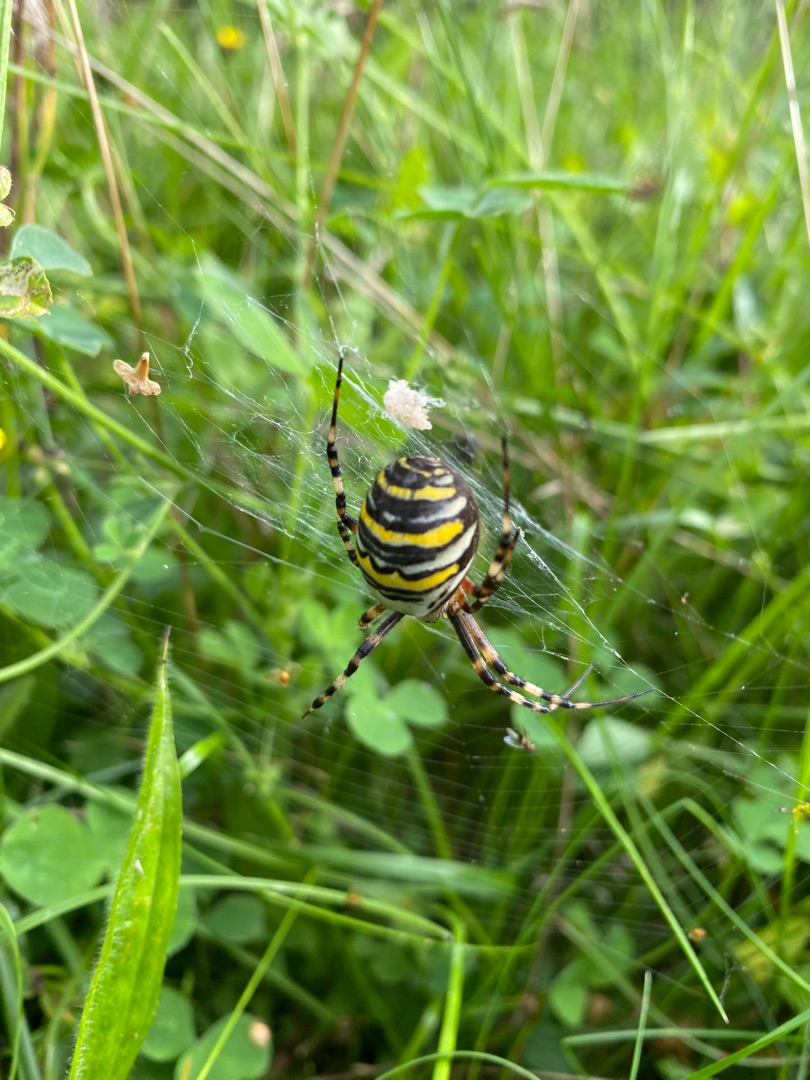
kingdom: Animalia
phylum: Arthropoda
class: Arachnida
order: Araneae
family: Araneidae
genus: Argiope
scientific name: Argiope bruennichi
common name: Hvepseedderkop
